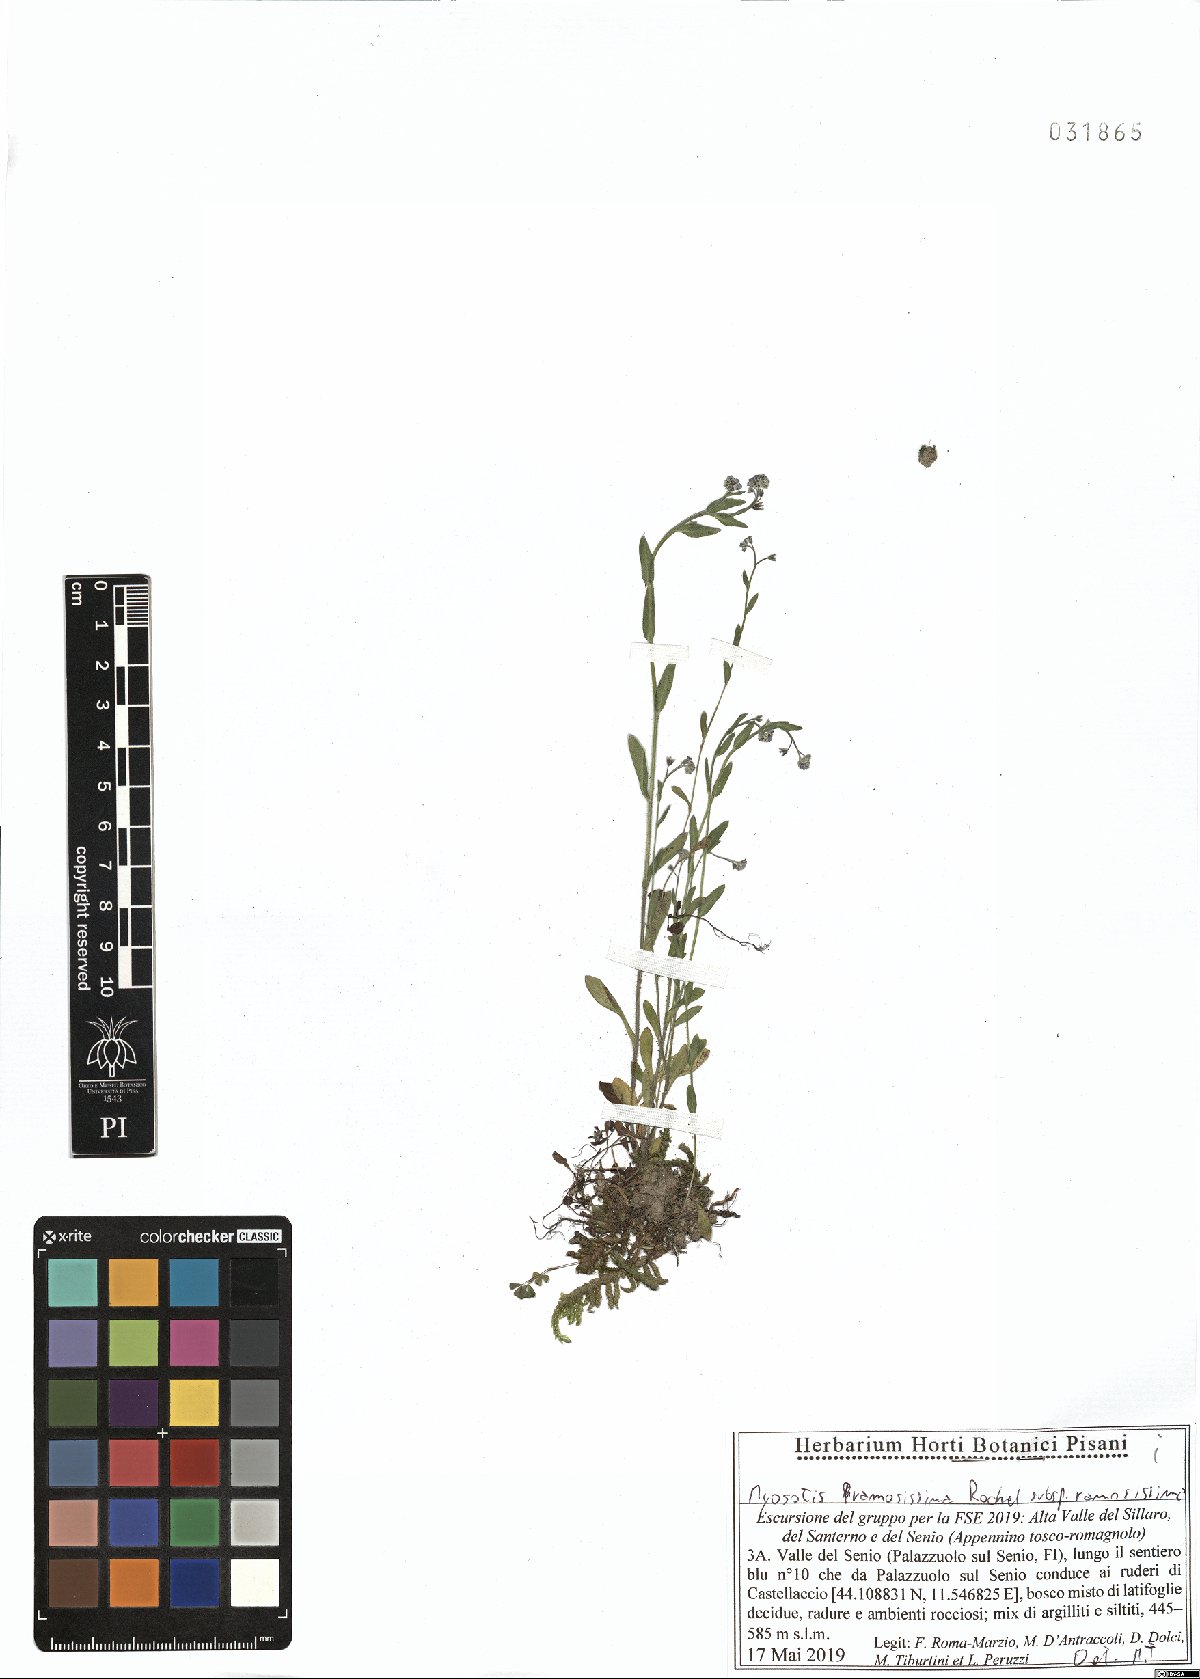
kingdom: Plantae
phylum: Tracheophyta
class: Magnoliopsida
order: Boraginales
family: Boraginaceae
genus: Myosotis
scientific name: Myosotis ramosissima
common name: Early forget-me-not
